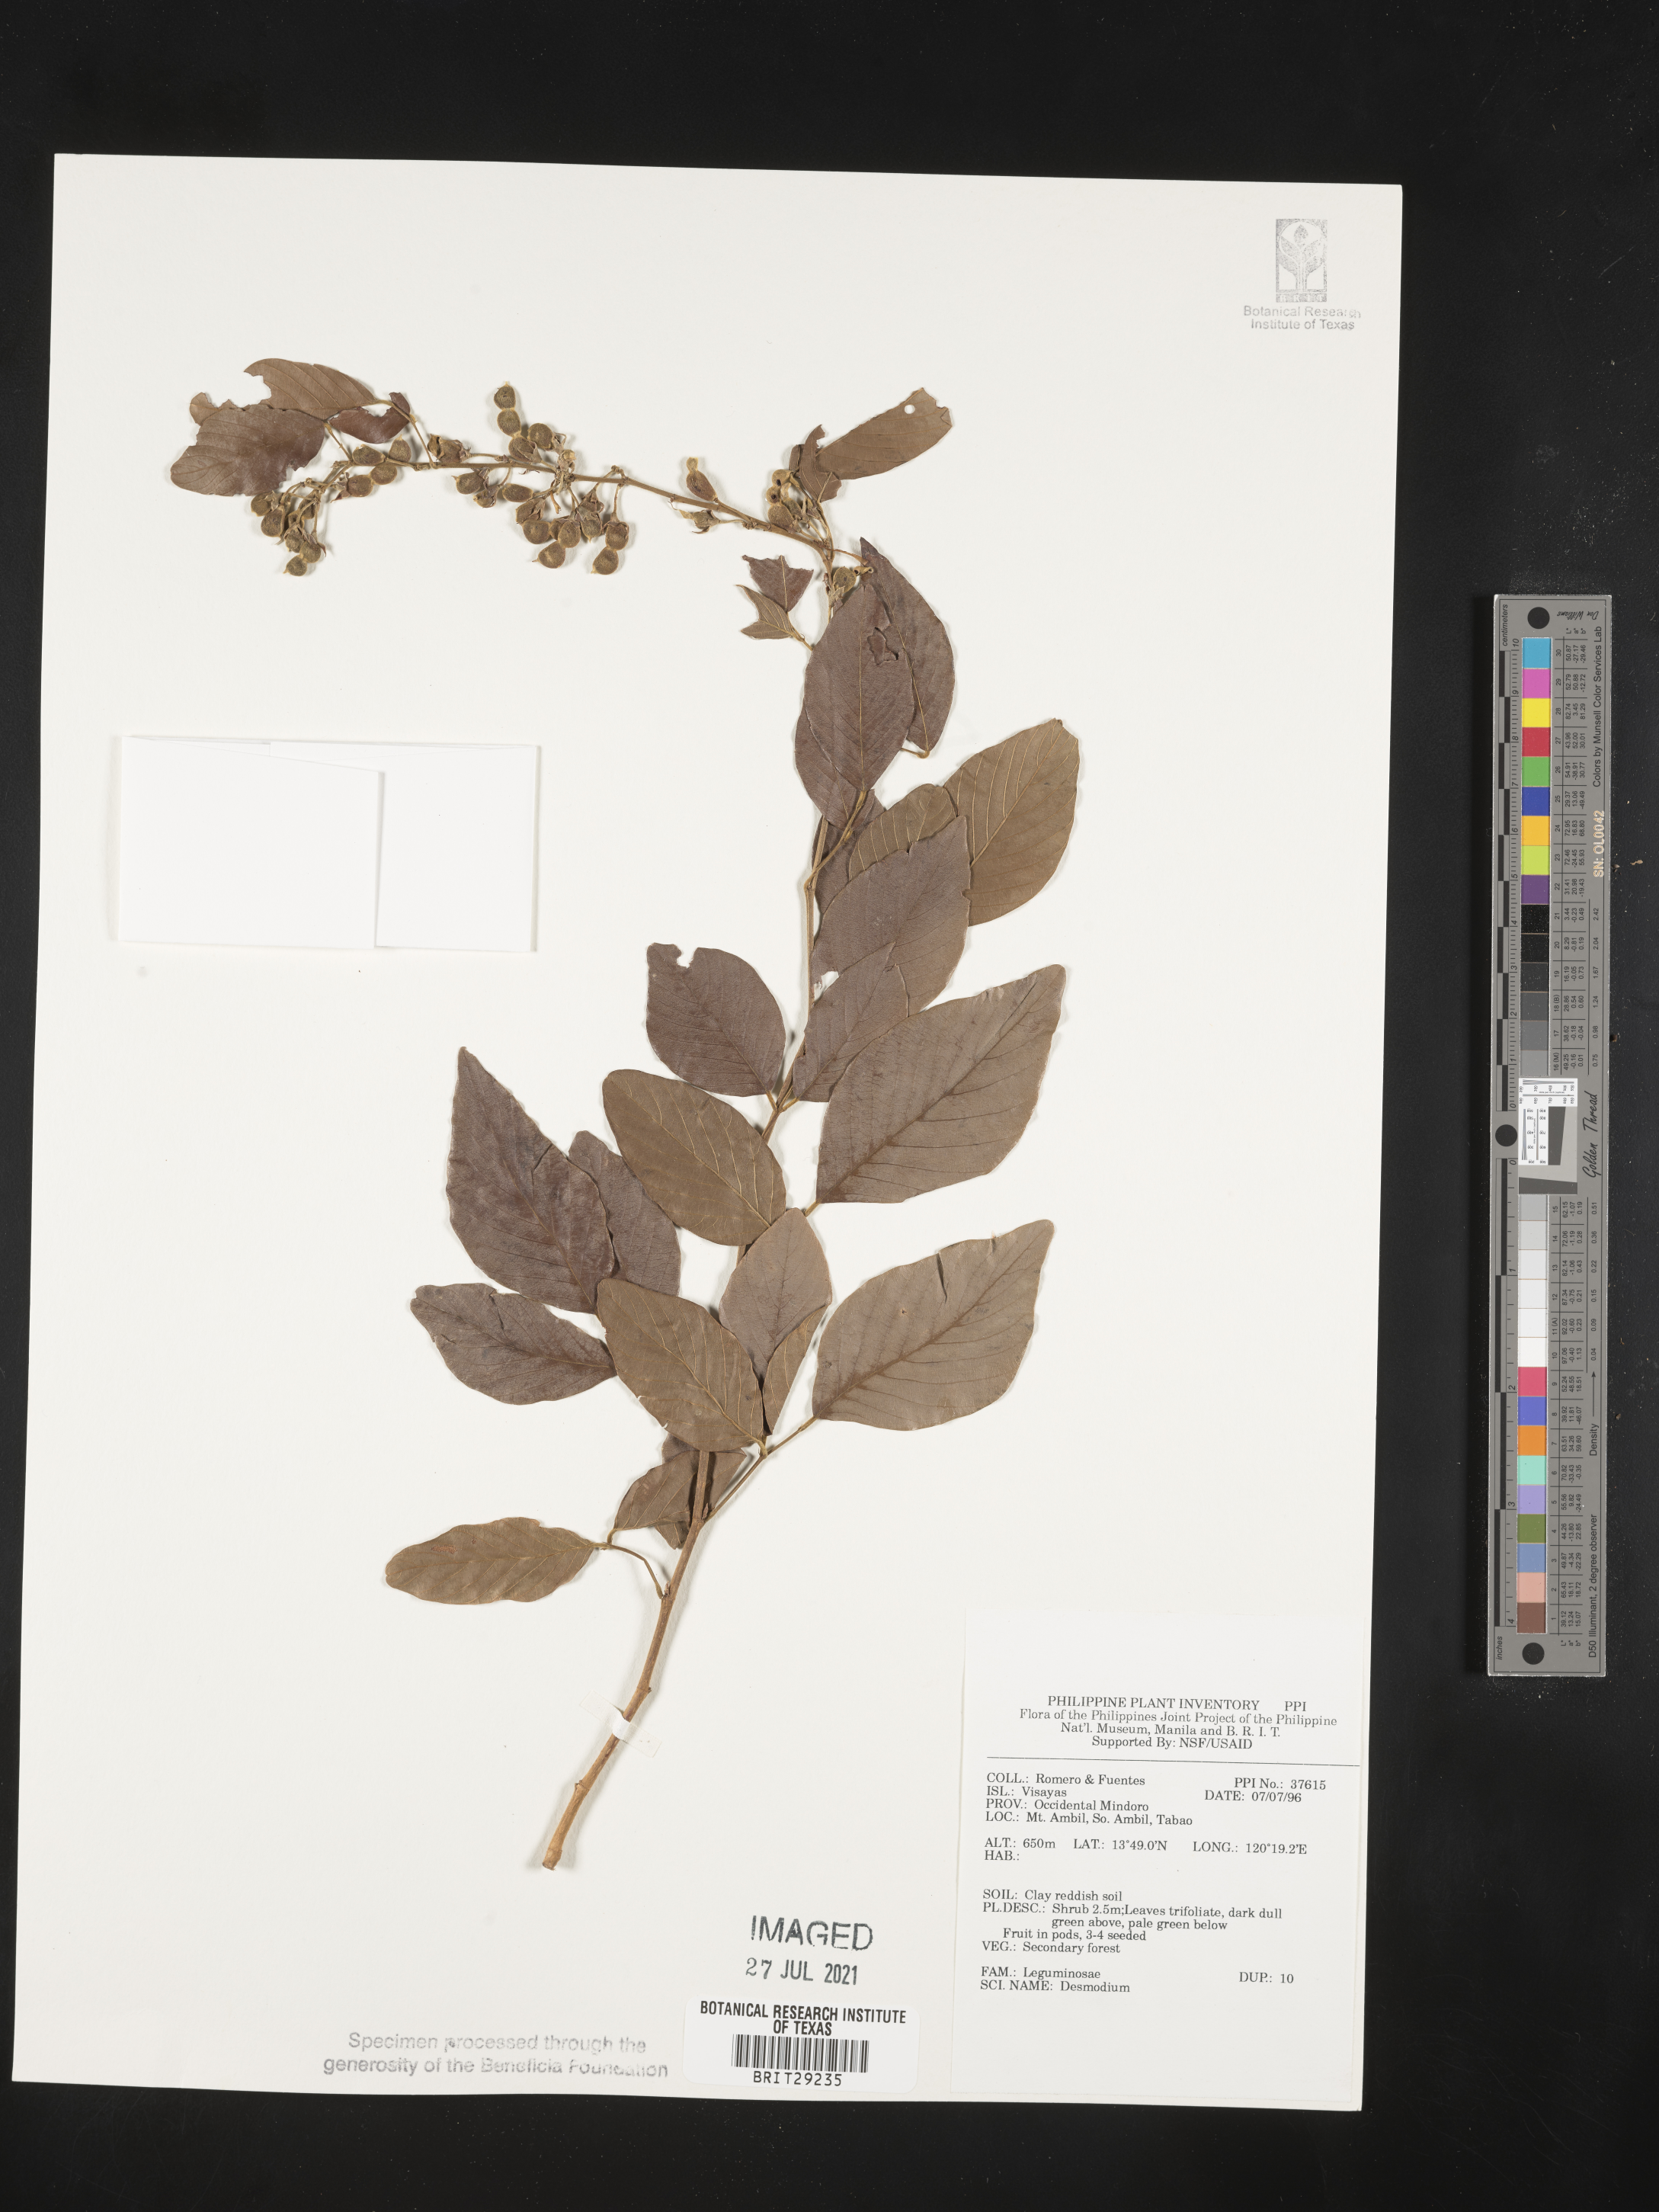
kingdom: Plantae
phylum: Tracheophyta
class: Magnoliopsida
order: Fabales
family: Fabaceae
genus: Desmodium
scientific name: Desmodium
